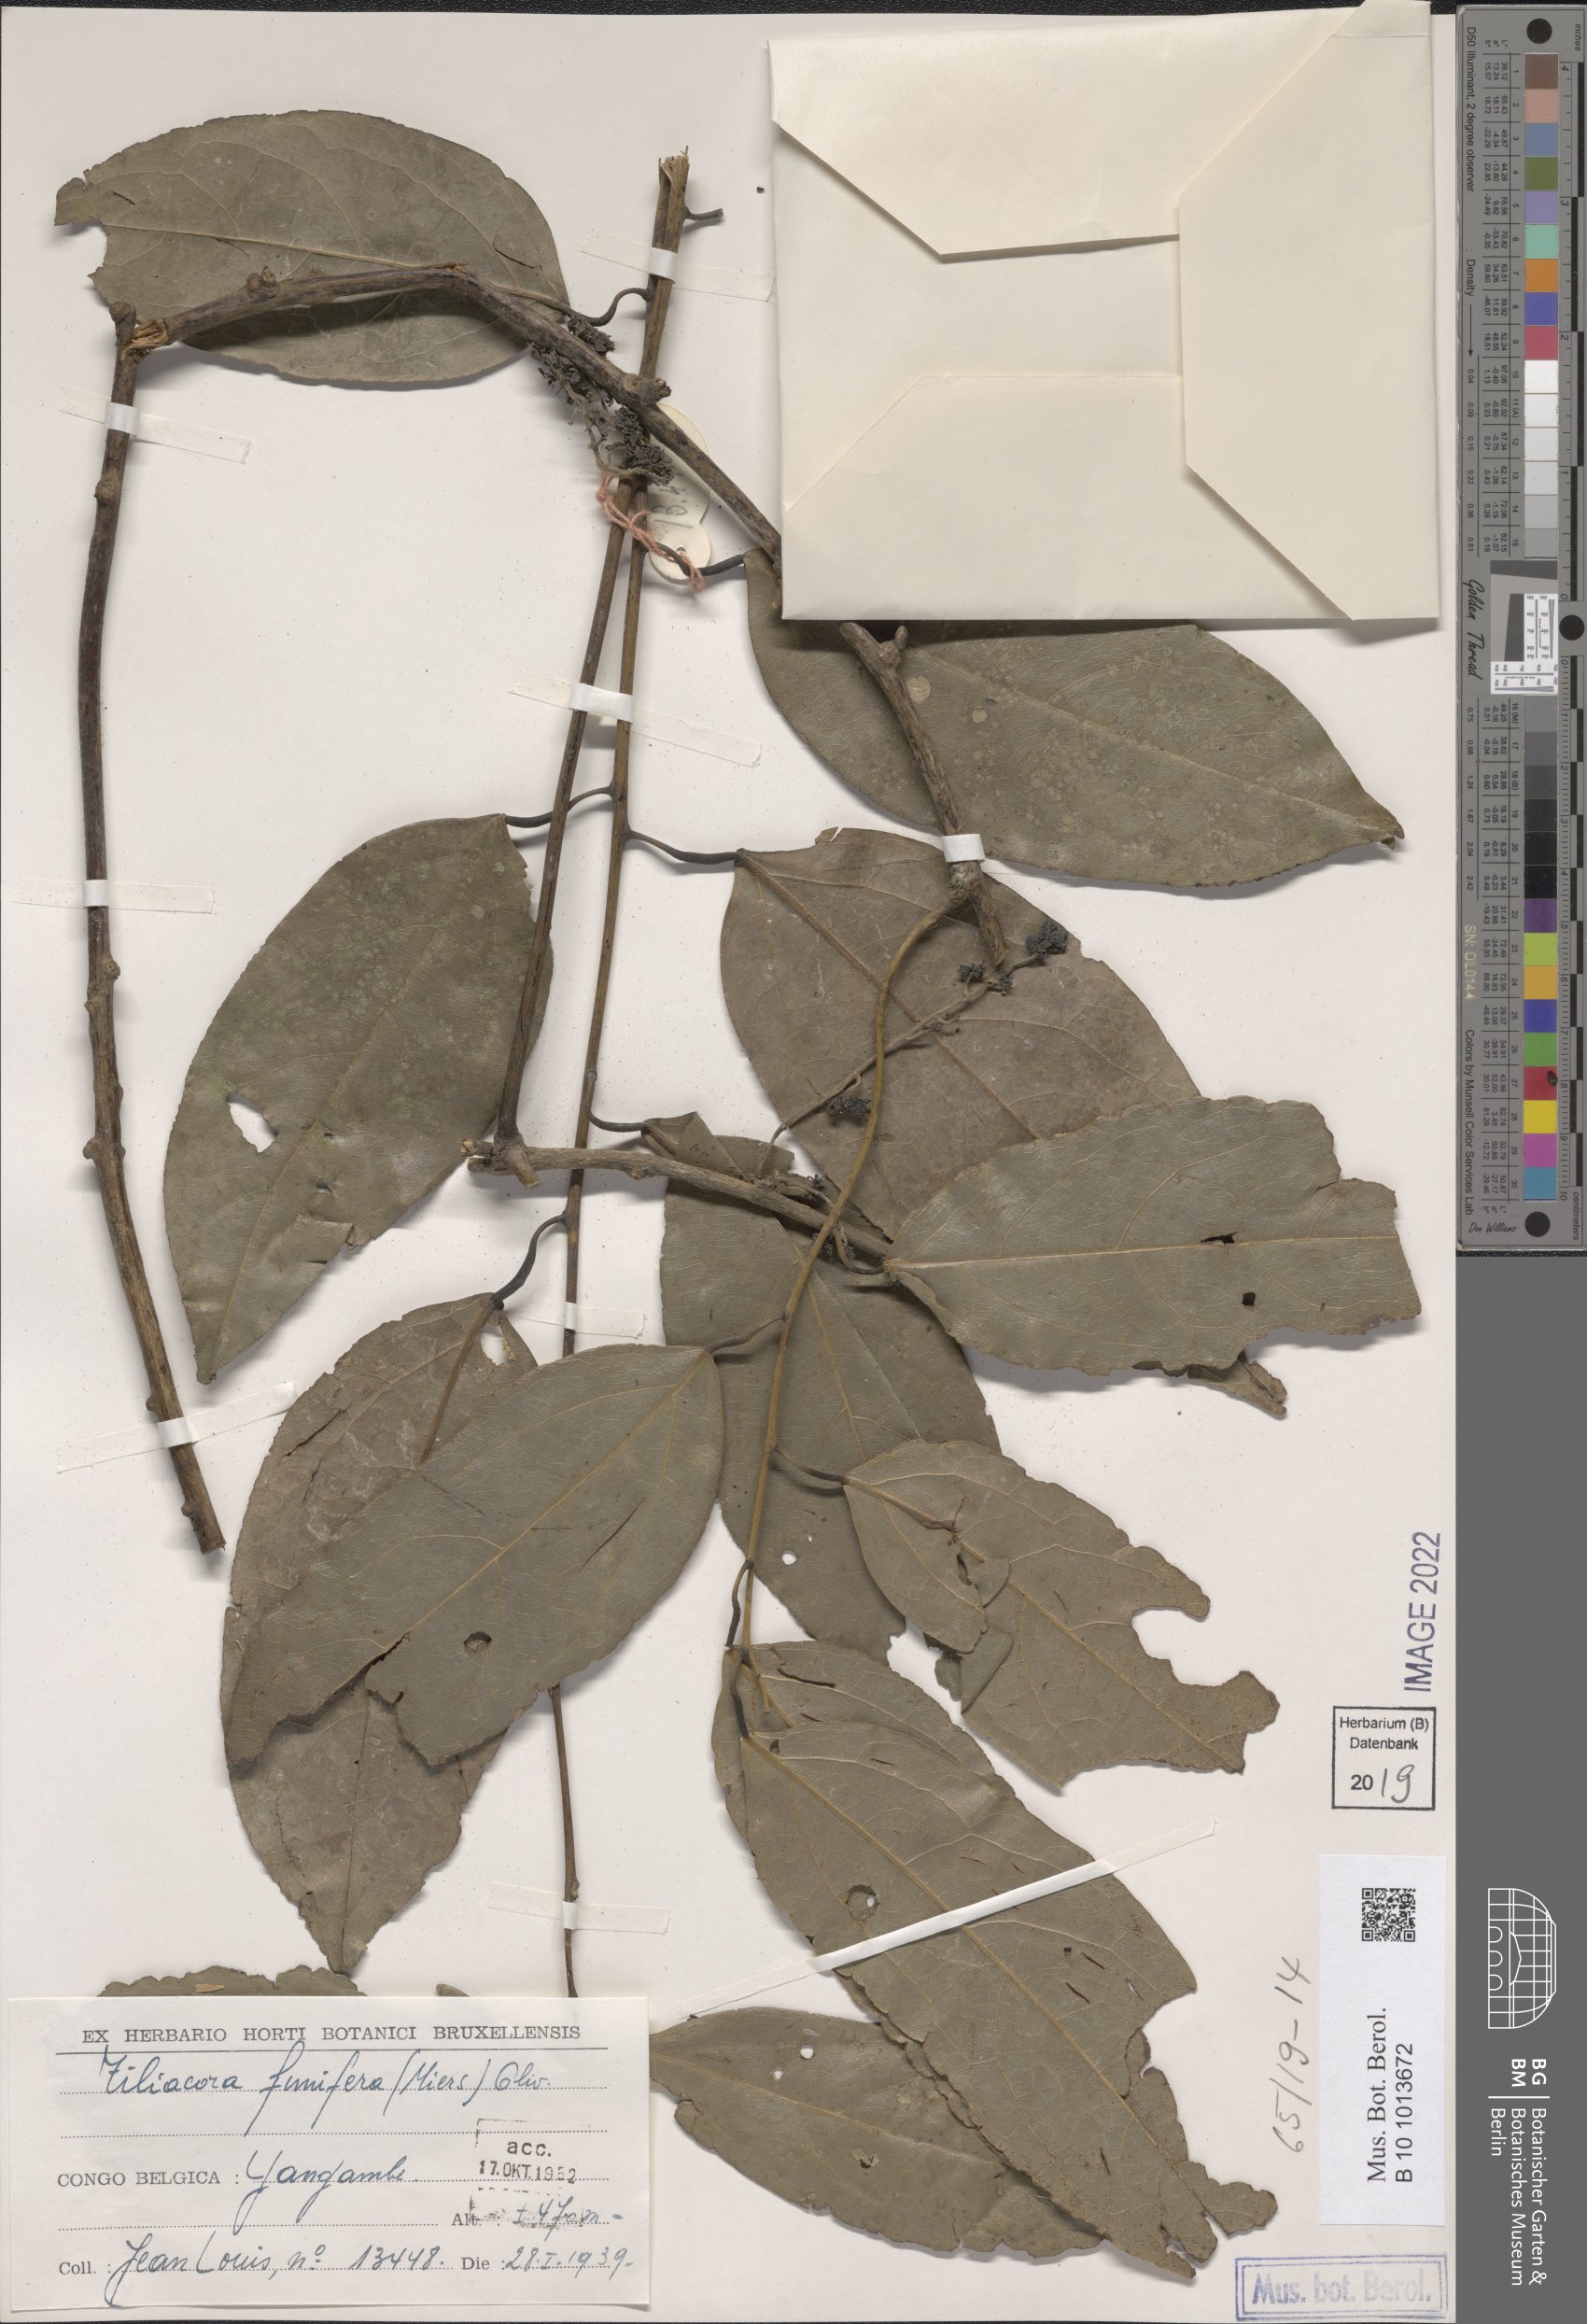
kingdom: Plantae
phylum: Tracheophyta
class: Magnoliopsida
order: Ranunculales
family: Menispermaceae
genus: Tiliacora
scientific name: Tiliacora funifera
